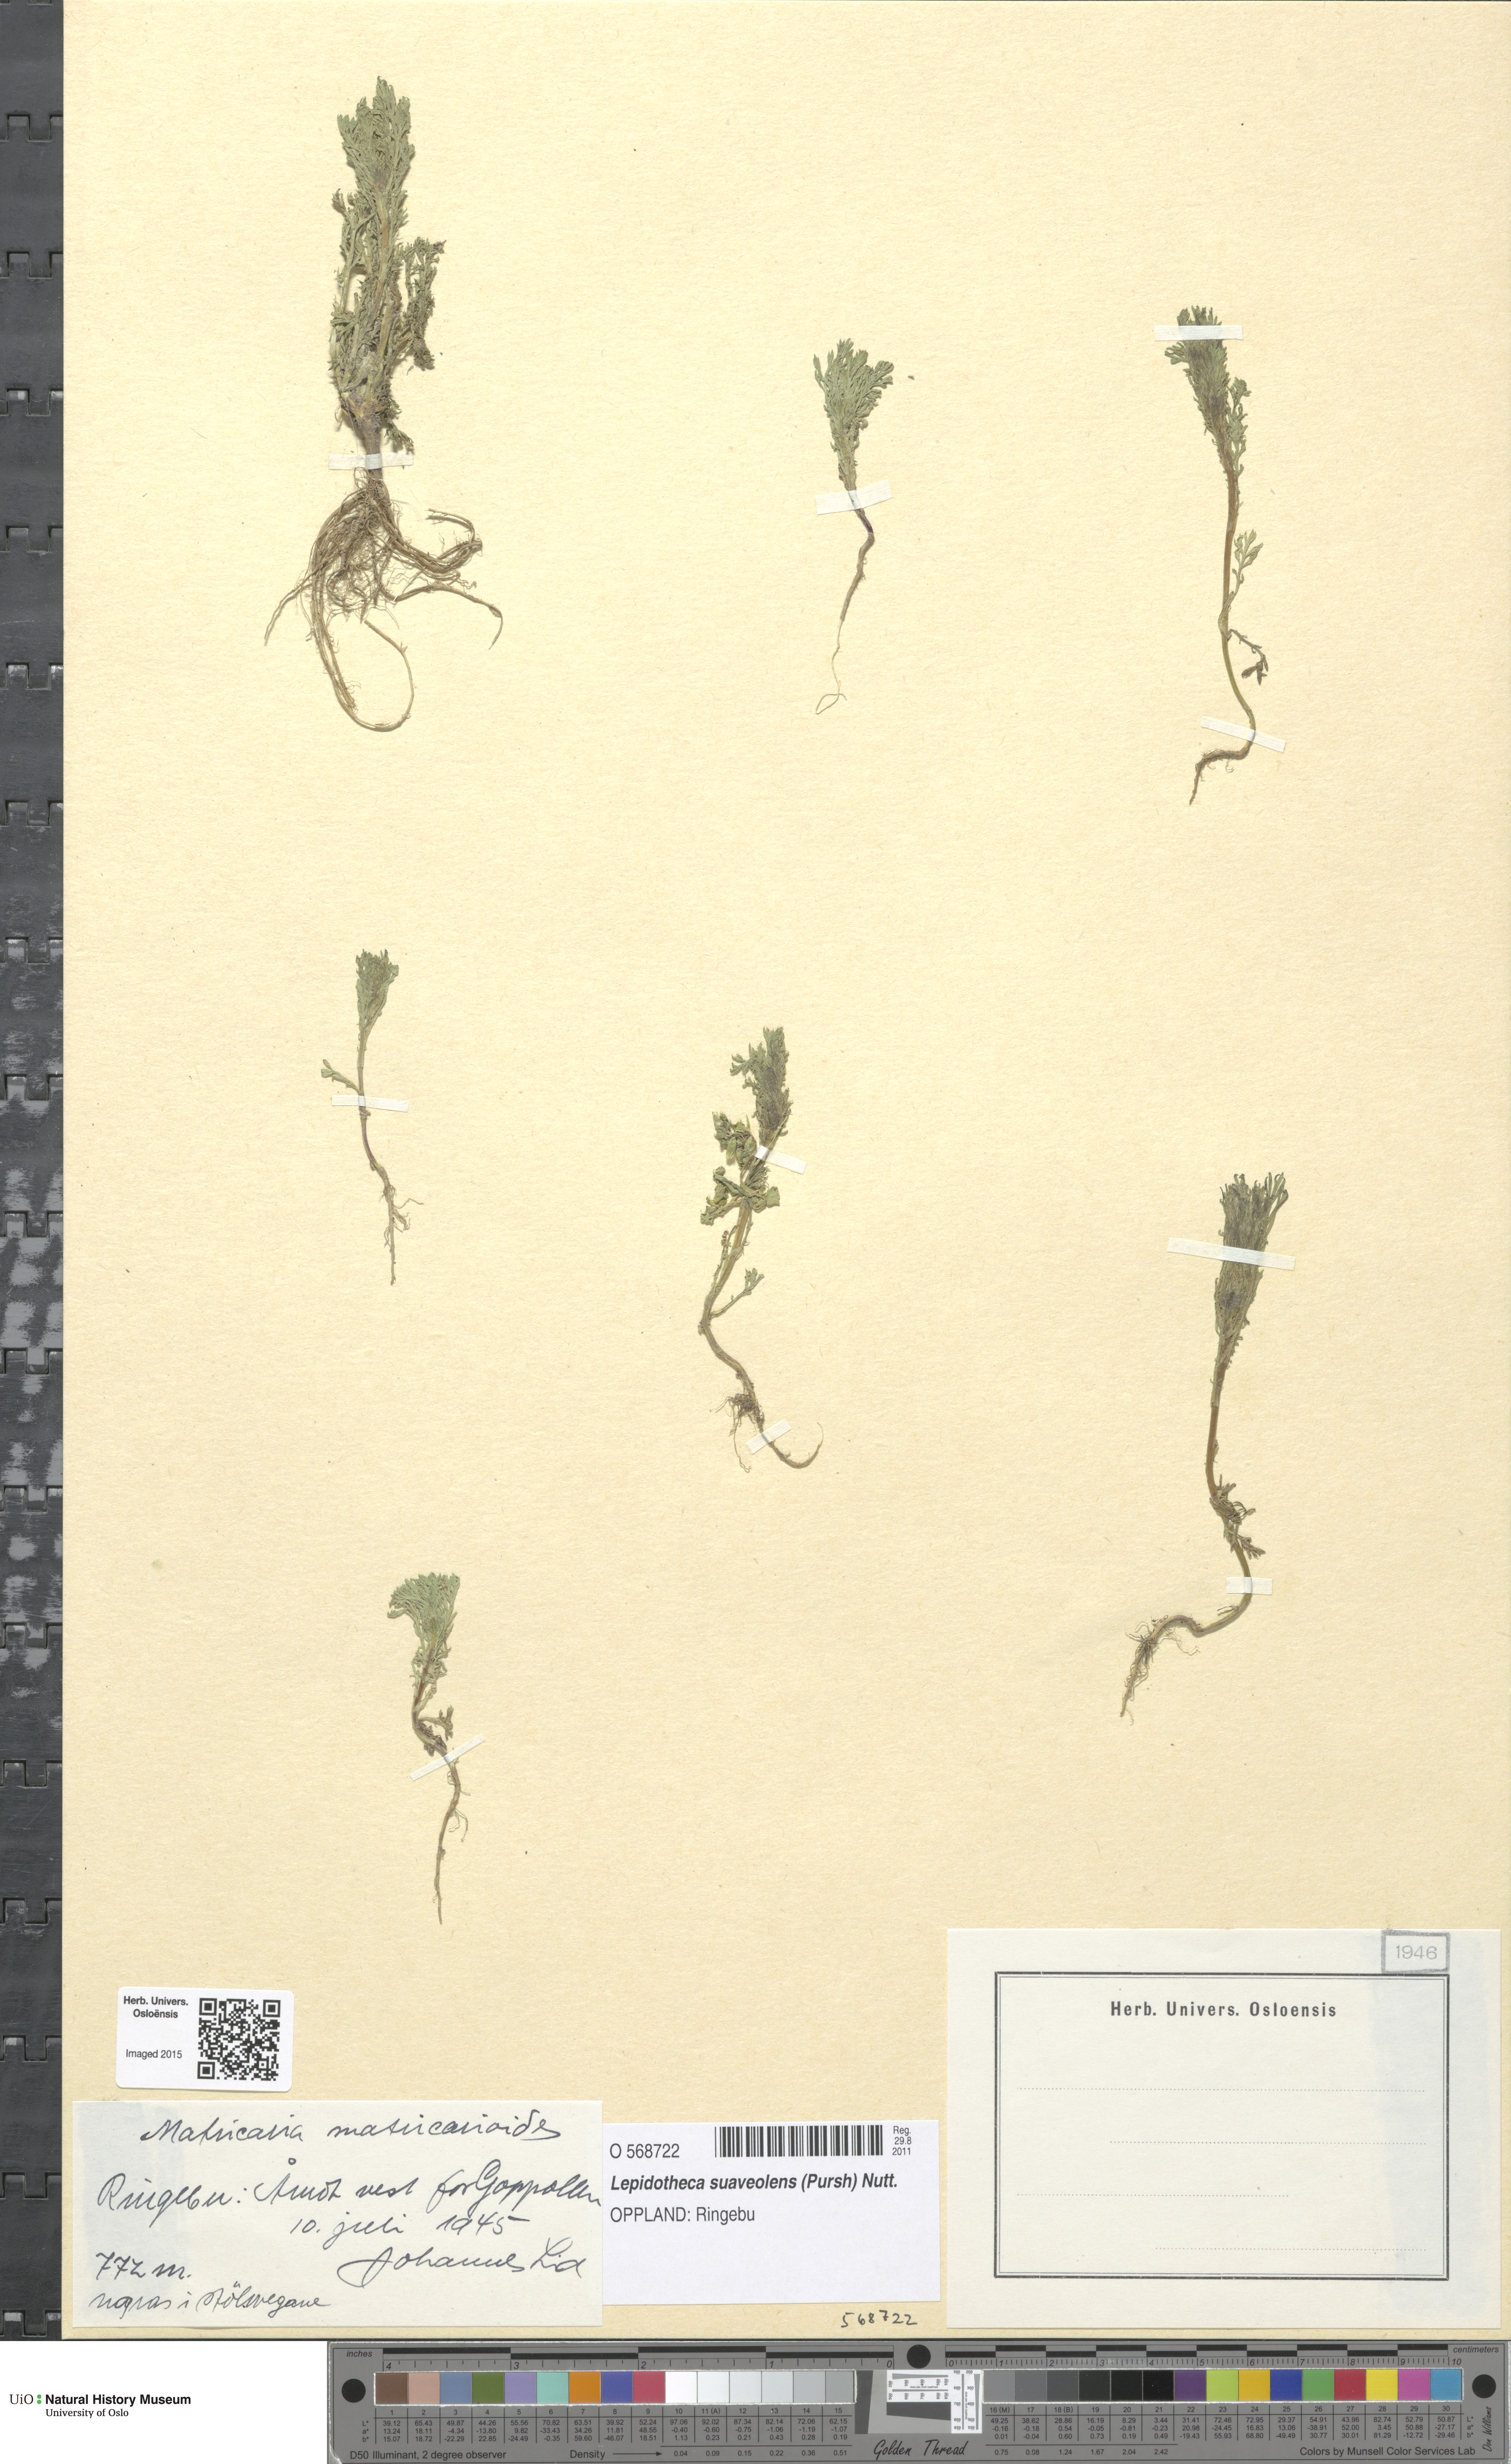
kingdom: Plantae
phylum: Tracheophyta
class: Magnoliopsida
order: Asterales
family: Asteraceae
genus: Matricaria
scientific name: Matricaria discoidea
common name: Disc mayweed
